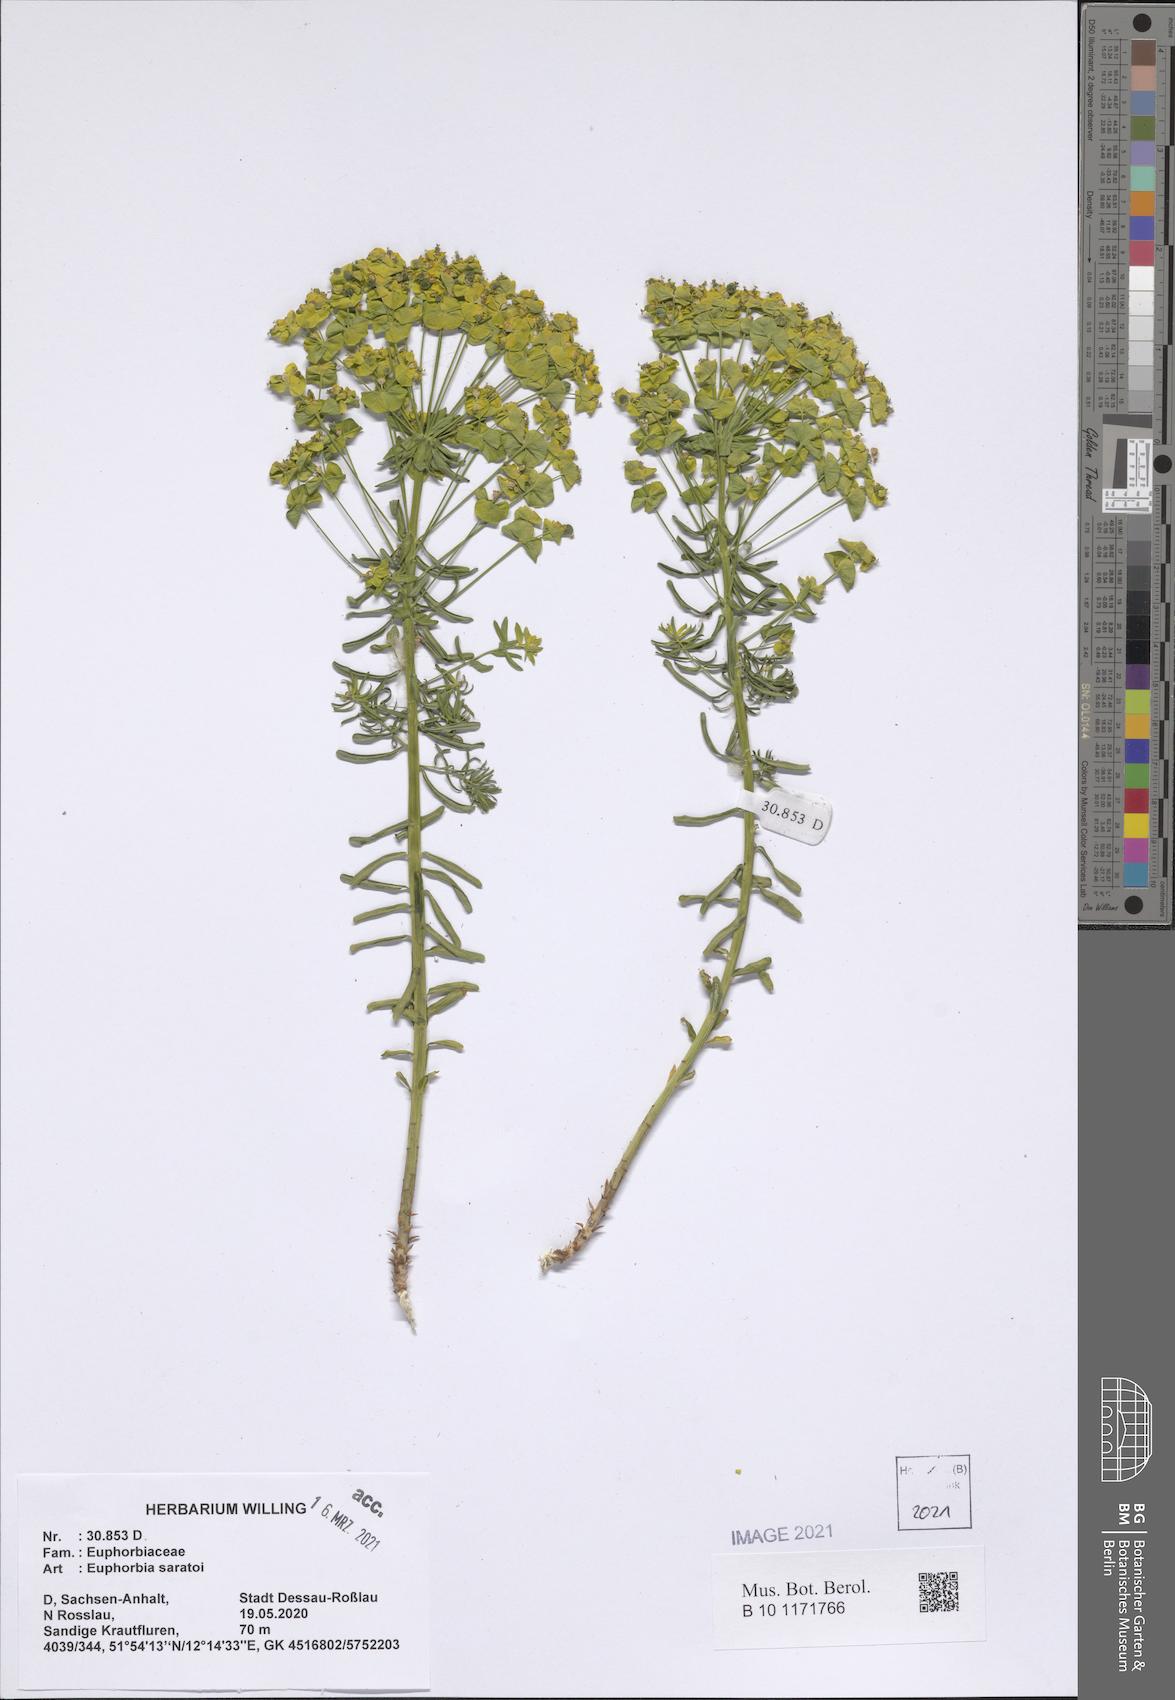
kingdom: Plantae
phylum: Tracheophyta
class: Magnoliopsida
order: Malpighiales
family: Euphorbiaceae
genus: Euphorbia
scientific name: Euphorbia saratoi
